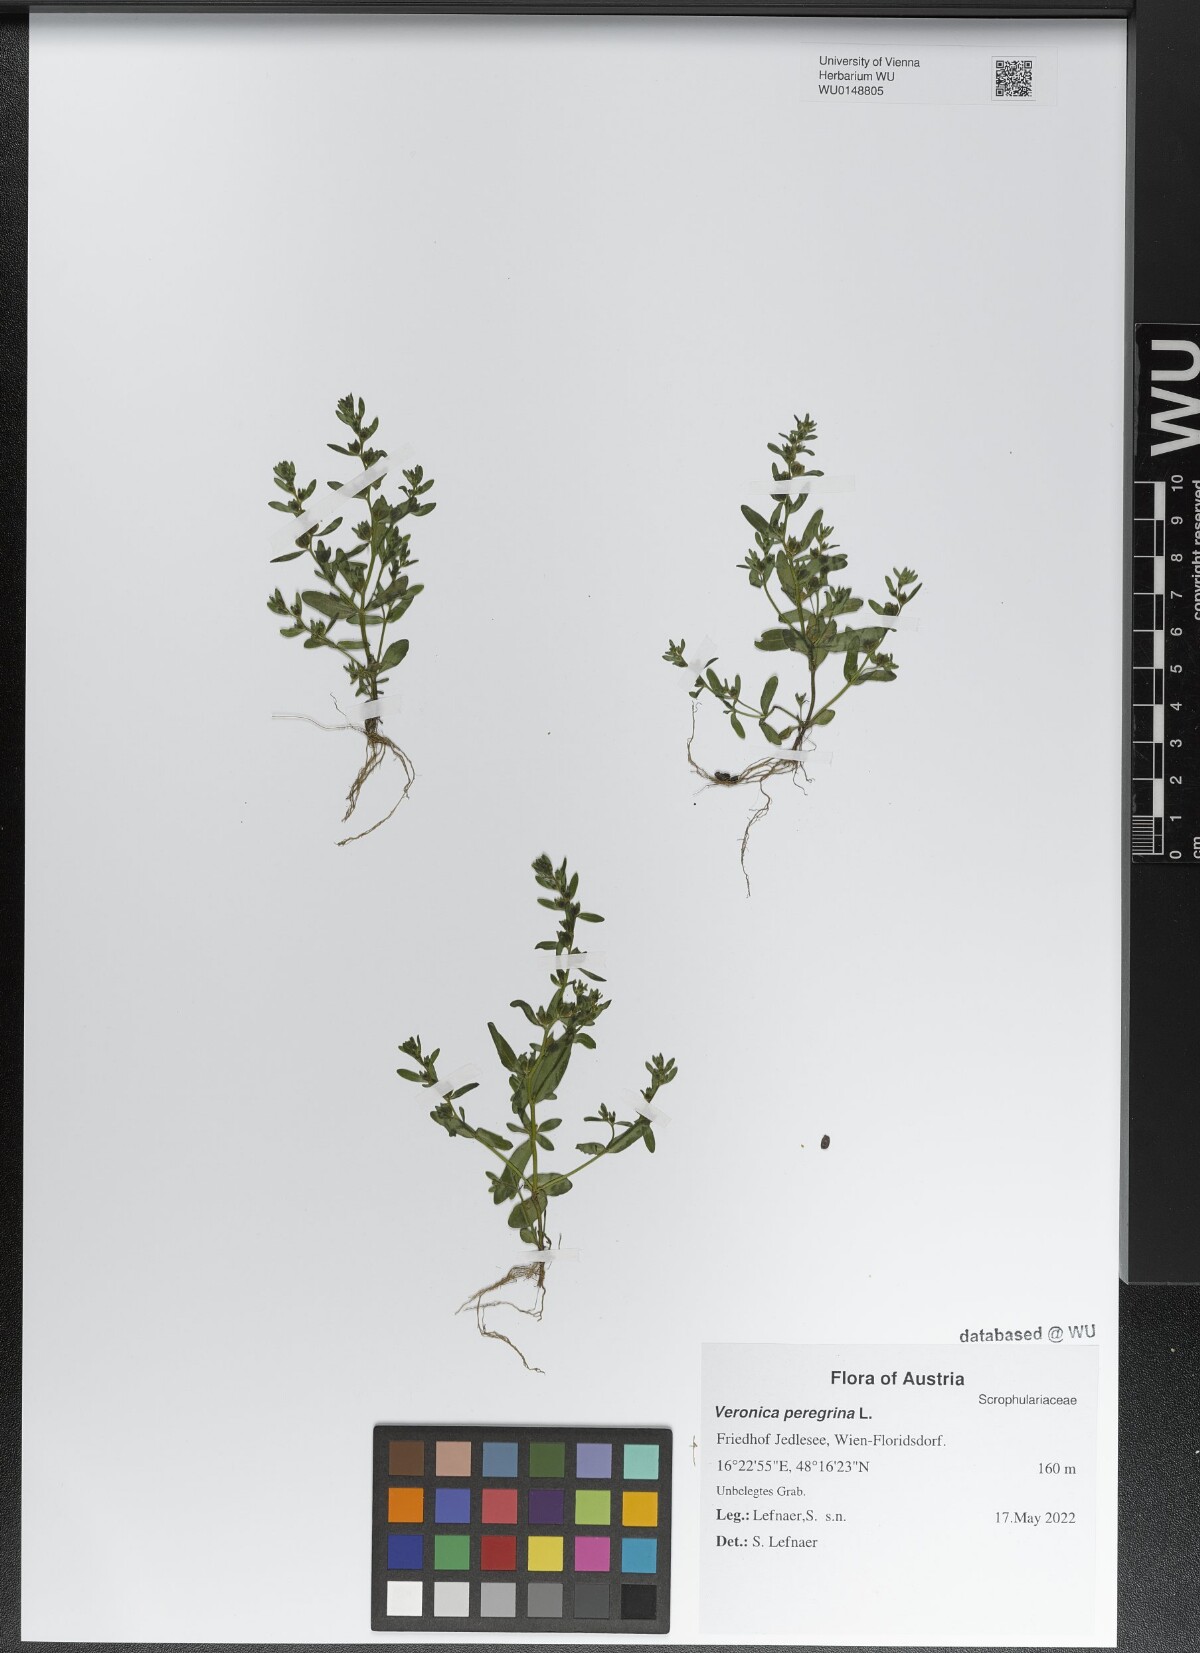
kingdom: Plantae
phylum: Tracheophyta
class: Magnoliopsida
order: Lamiales
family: Plantaginaceae
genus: Veronica
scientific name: Veronica peregrina
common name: Neckweed
